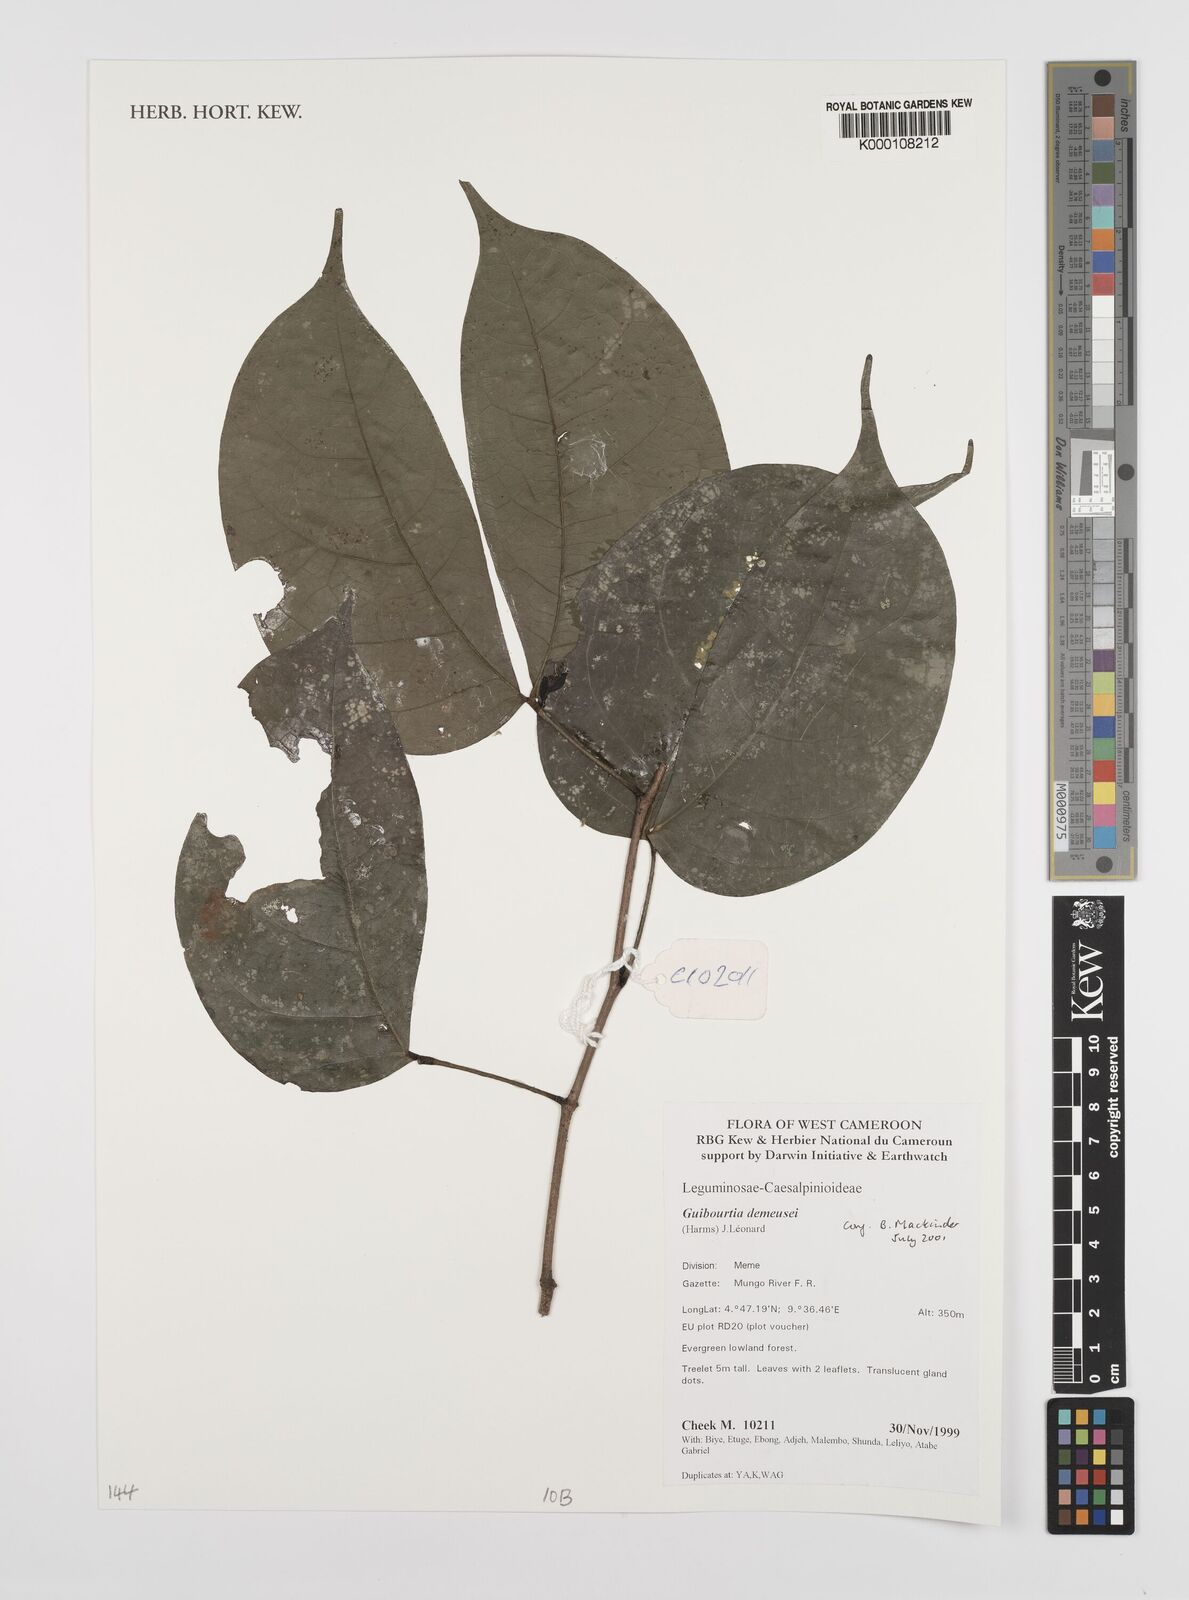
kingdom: Plantae
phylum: Tracheophyta
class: Magnoliopsida
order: Fabales
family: Fabaceae
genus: Guibourtia
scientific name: Guibourtia
